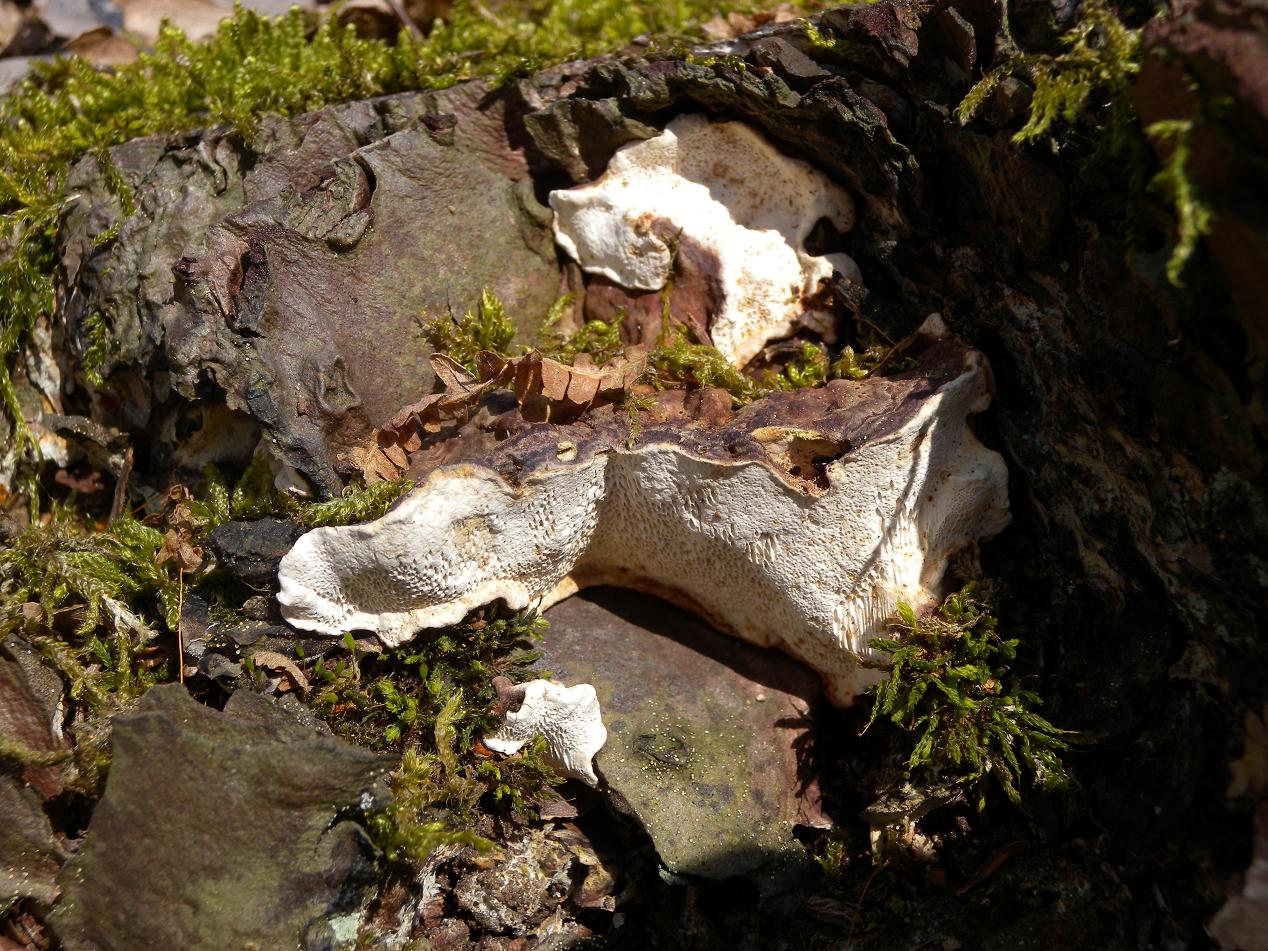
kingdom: Fungi
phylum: Basidiomycota
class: Agaricomycetes
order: Russulales
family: Bondarzewiaceae
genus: Heterobasidion
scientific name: Heterobasidion annosum
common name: almindelig rodfordærver
